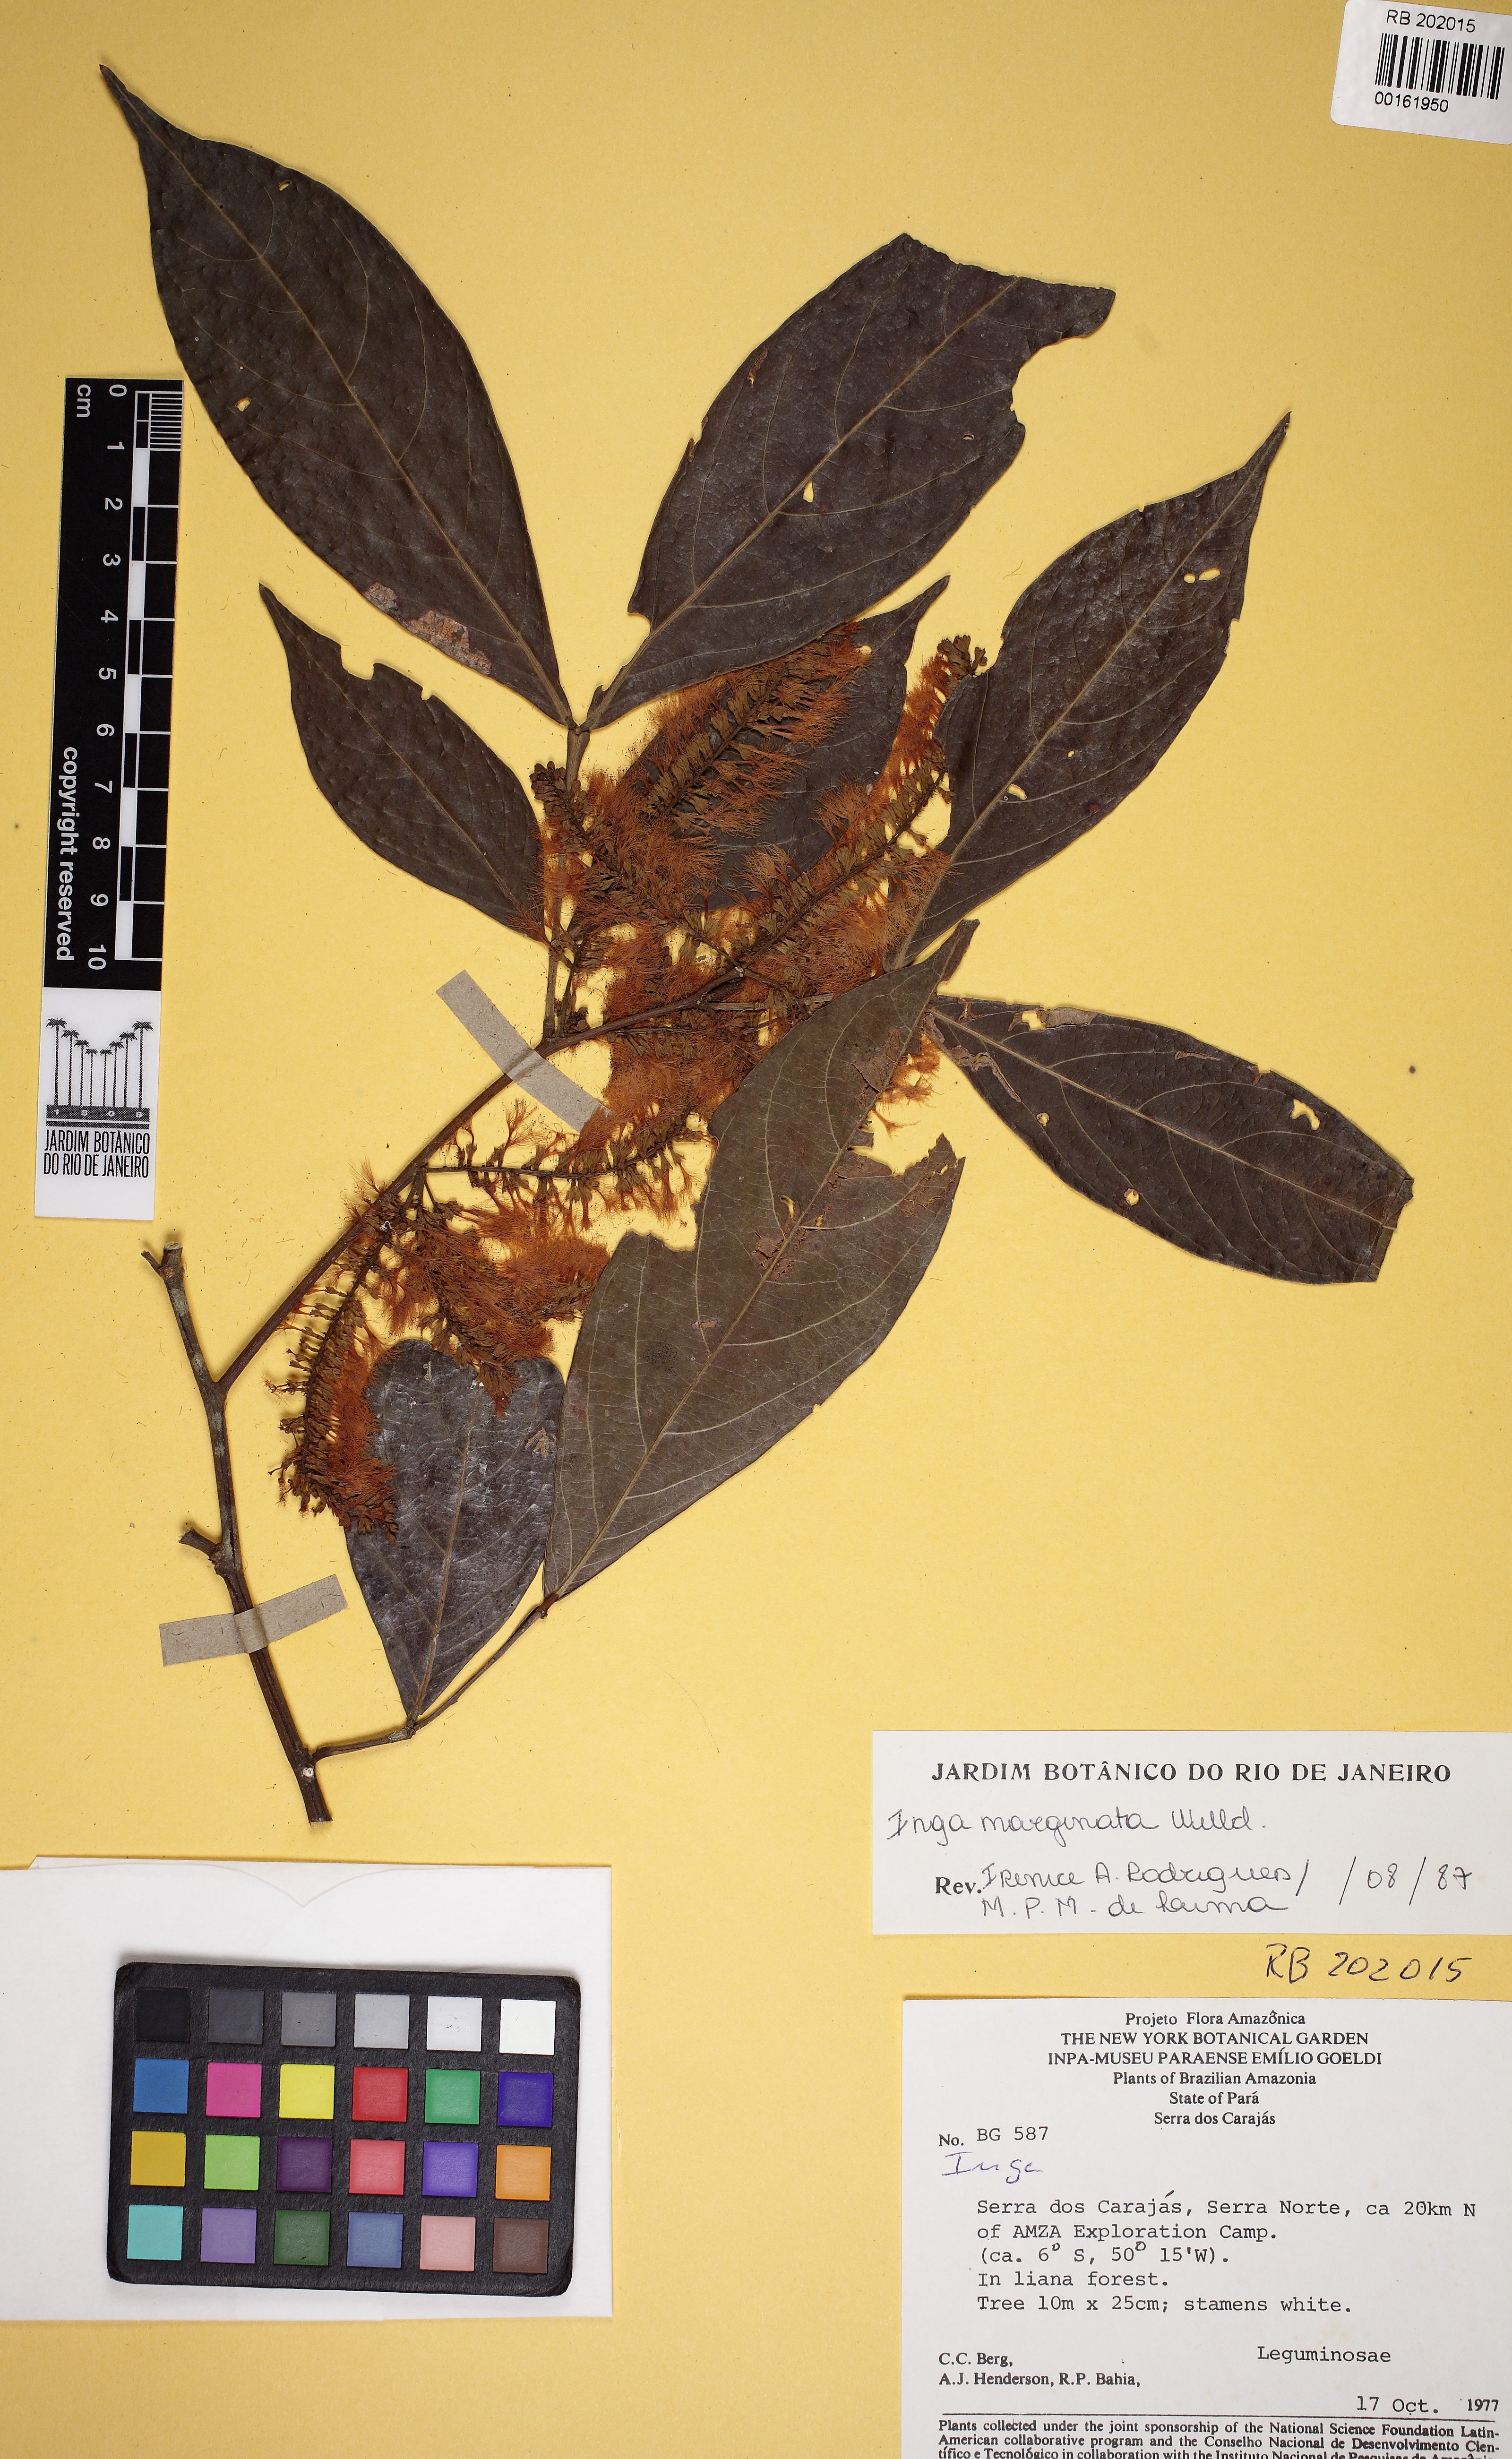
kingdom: Plantae
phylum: Tracheophyta
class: Magnoliopsida
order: Fabales
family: Fabaceae
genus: Inga
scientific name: Inga marginata
